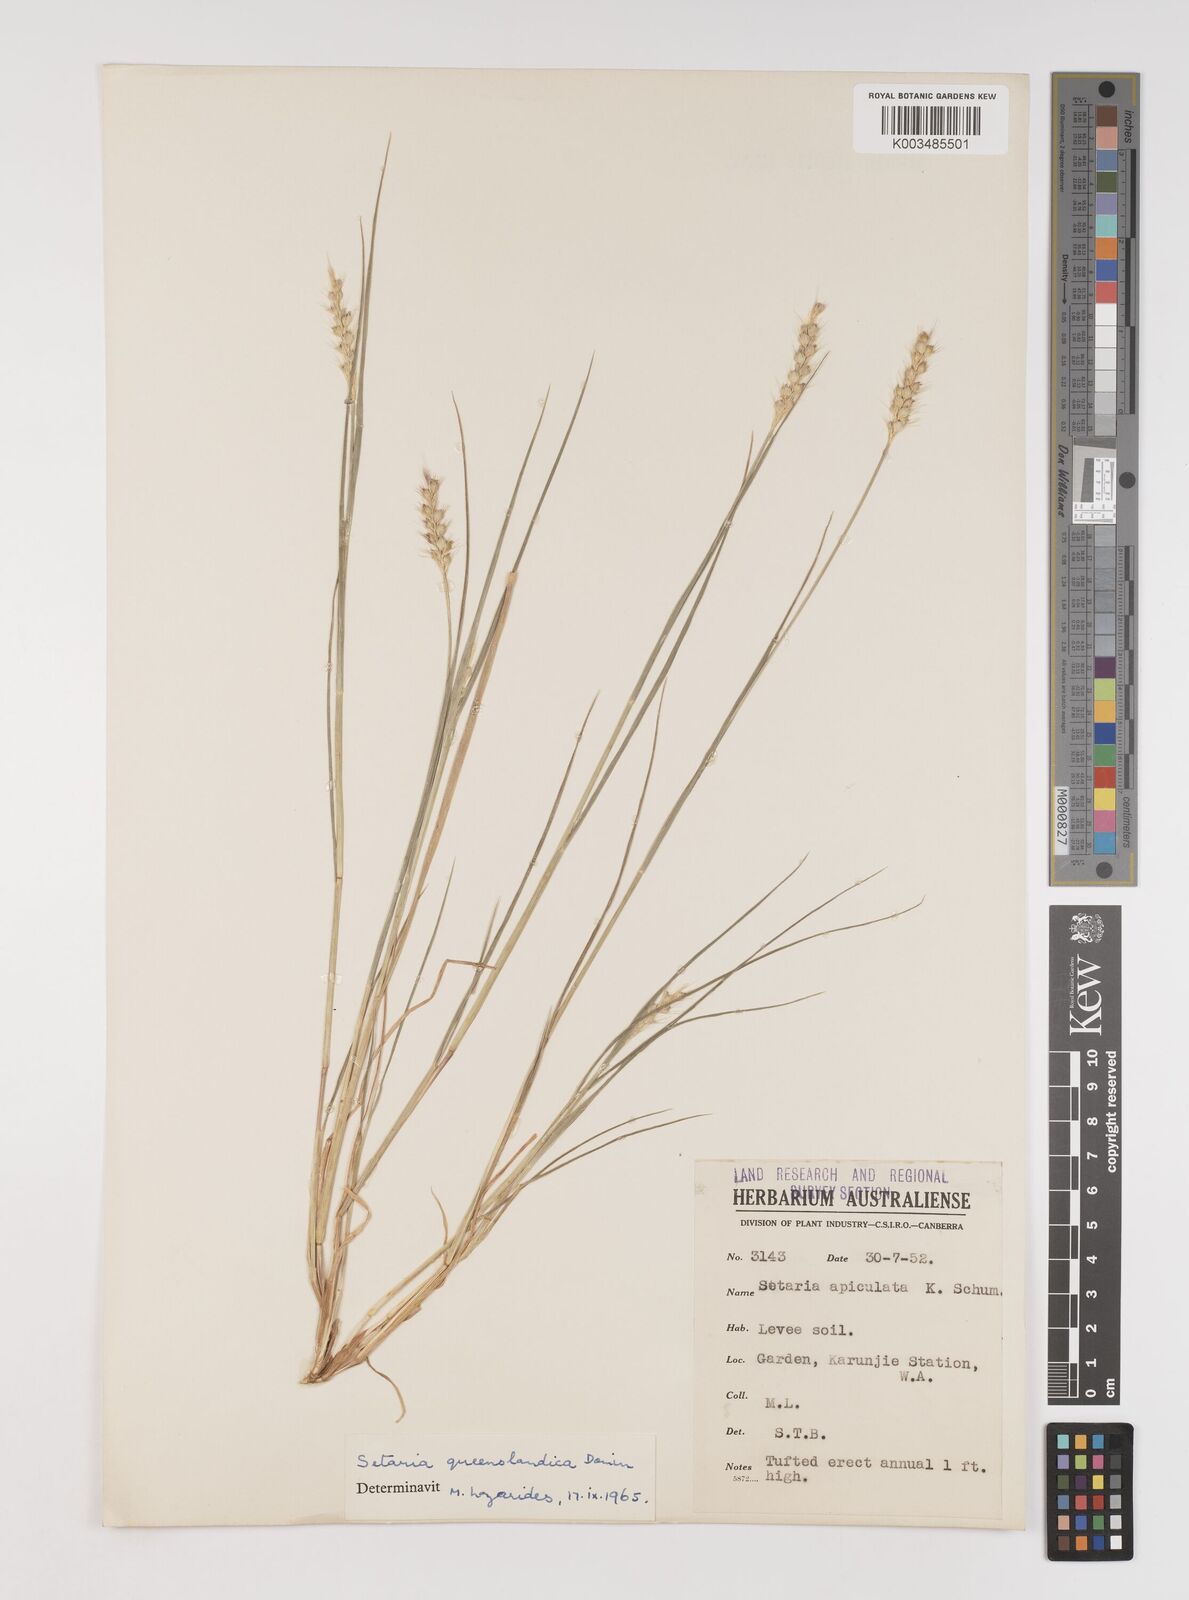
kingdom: Plantae
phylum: Tracheophyta
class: Liliopsida
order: Poales
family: Poaceae
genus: Setaria
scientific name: Setaria queenslandica
